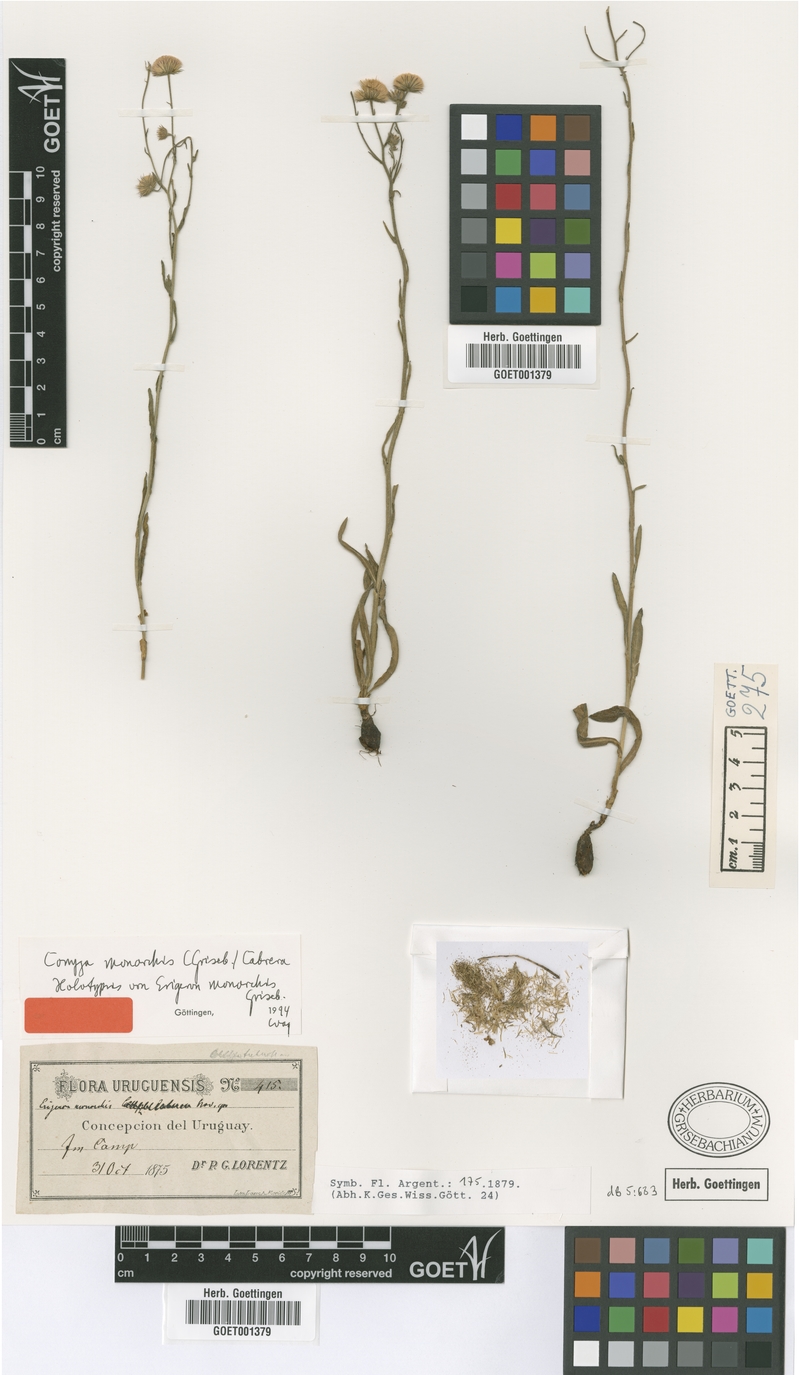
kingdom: Plantae
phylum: Tracheophyta
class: Magnoliopsida
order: Asterales
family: Asteraceae
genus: Erigeron
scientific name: Erigeron monorchis
